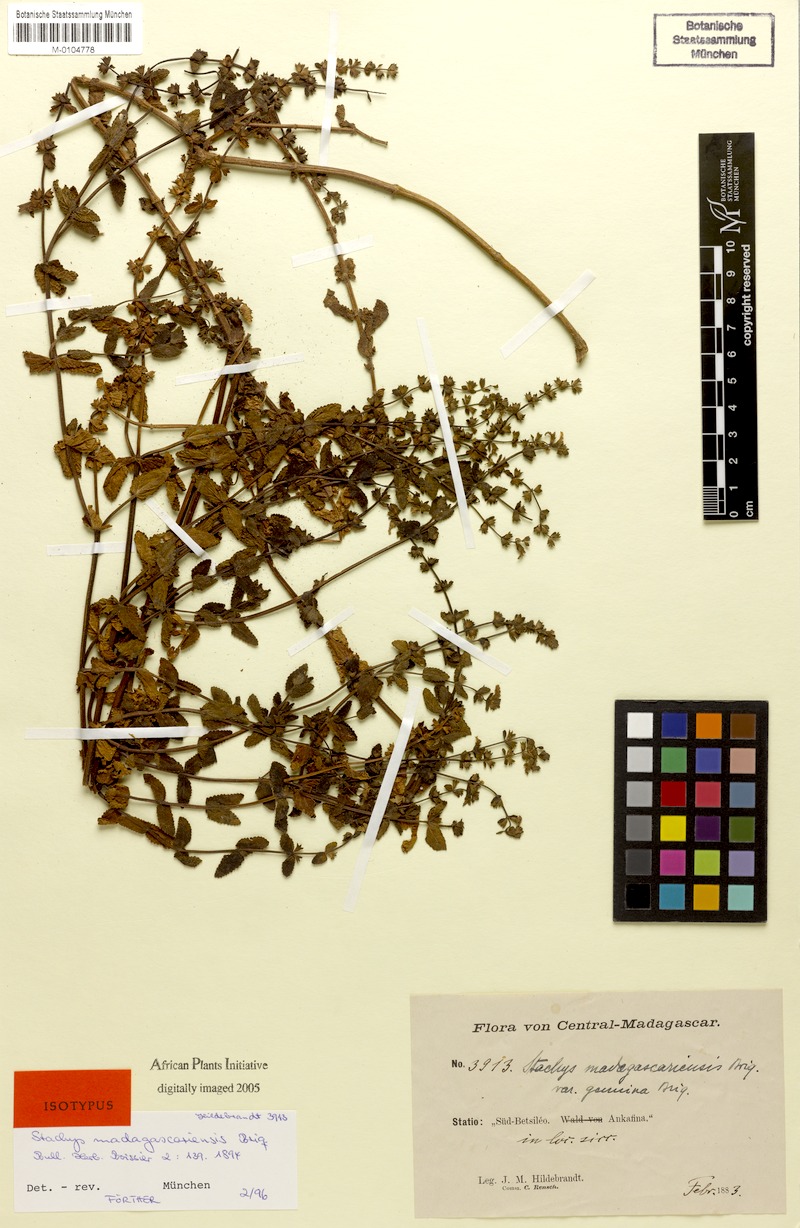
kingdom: Plantae
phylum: Tracheophyta
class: Magnoliopsida
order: Lamiales
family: Lamiaceae
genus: Stachys
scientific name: Stachys brachiata
